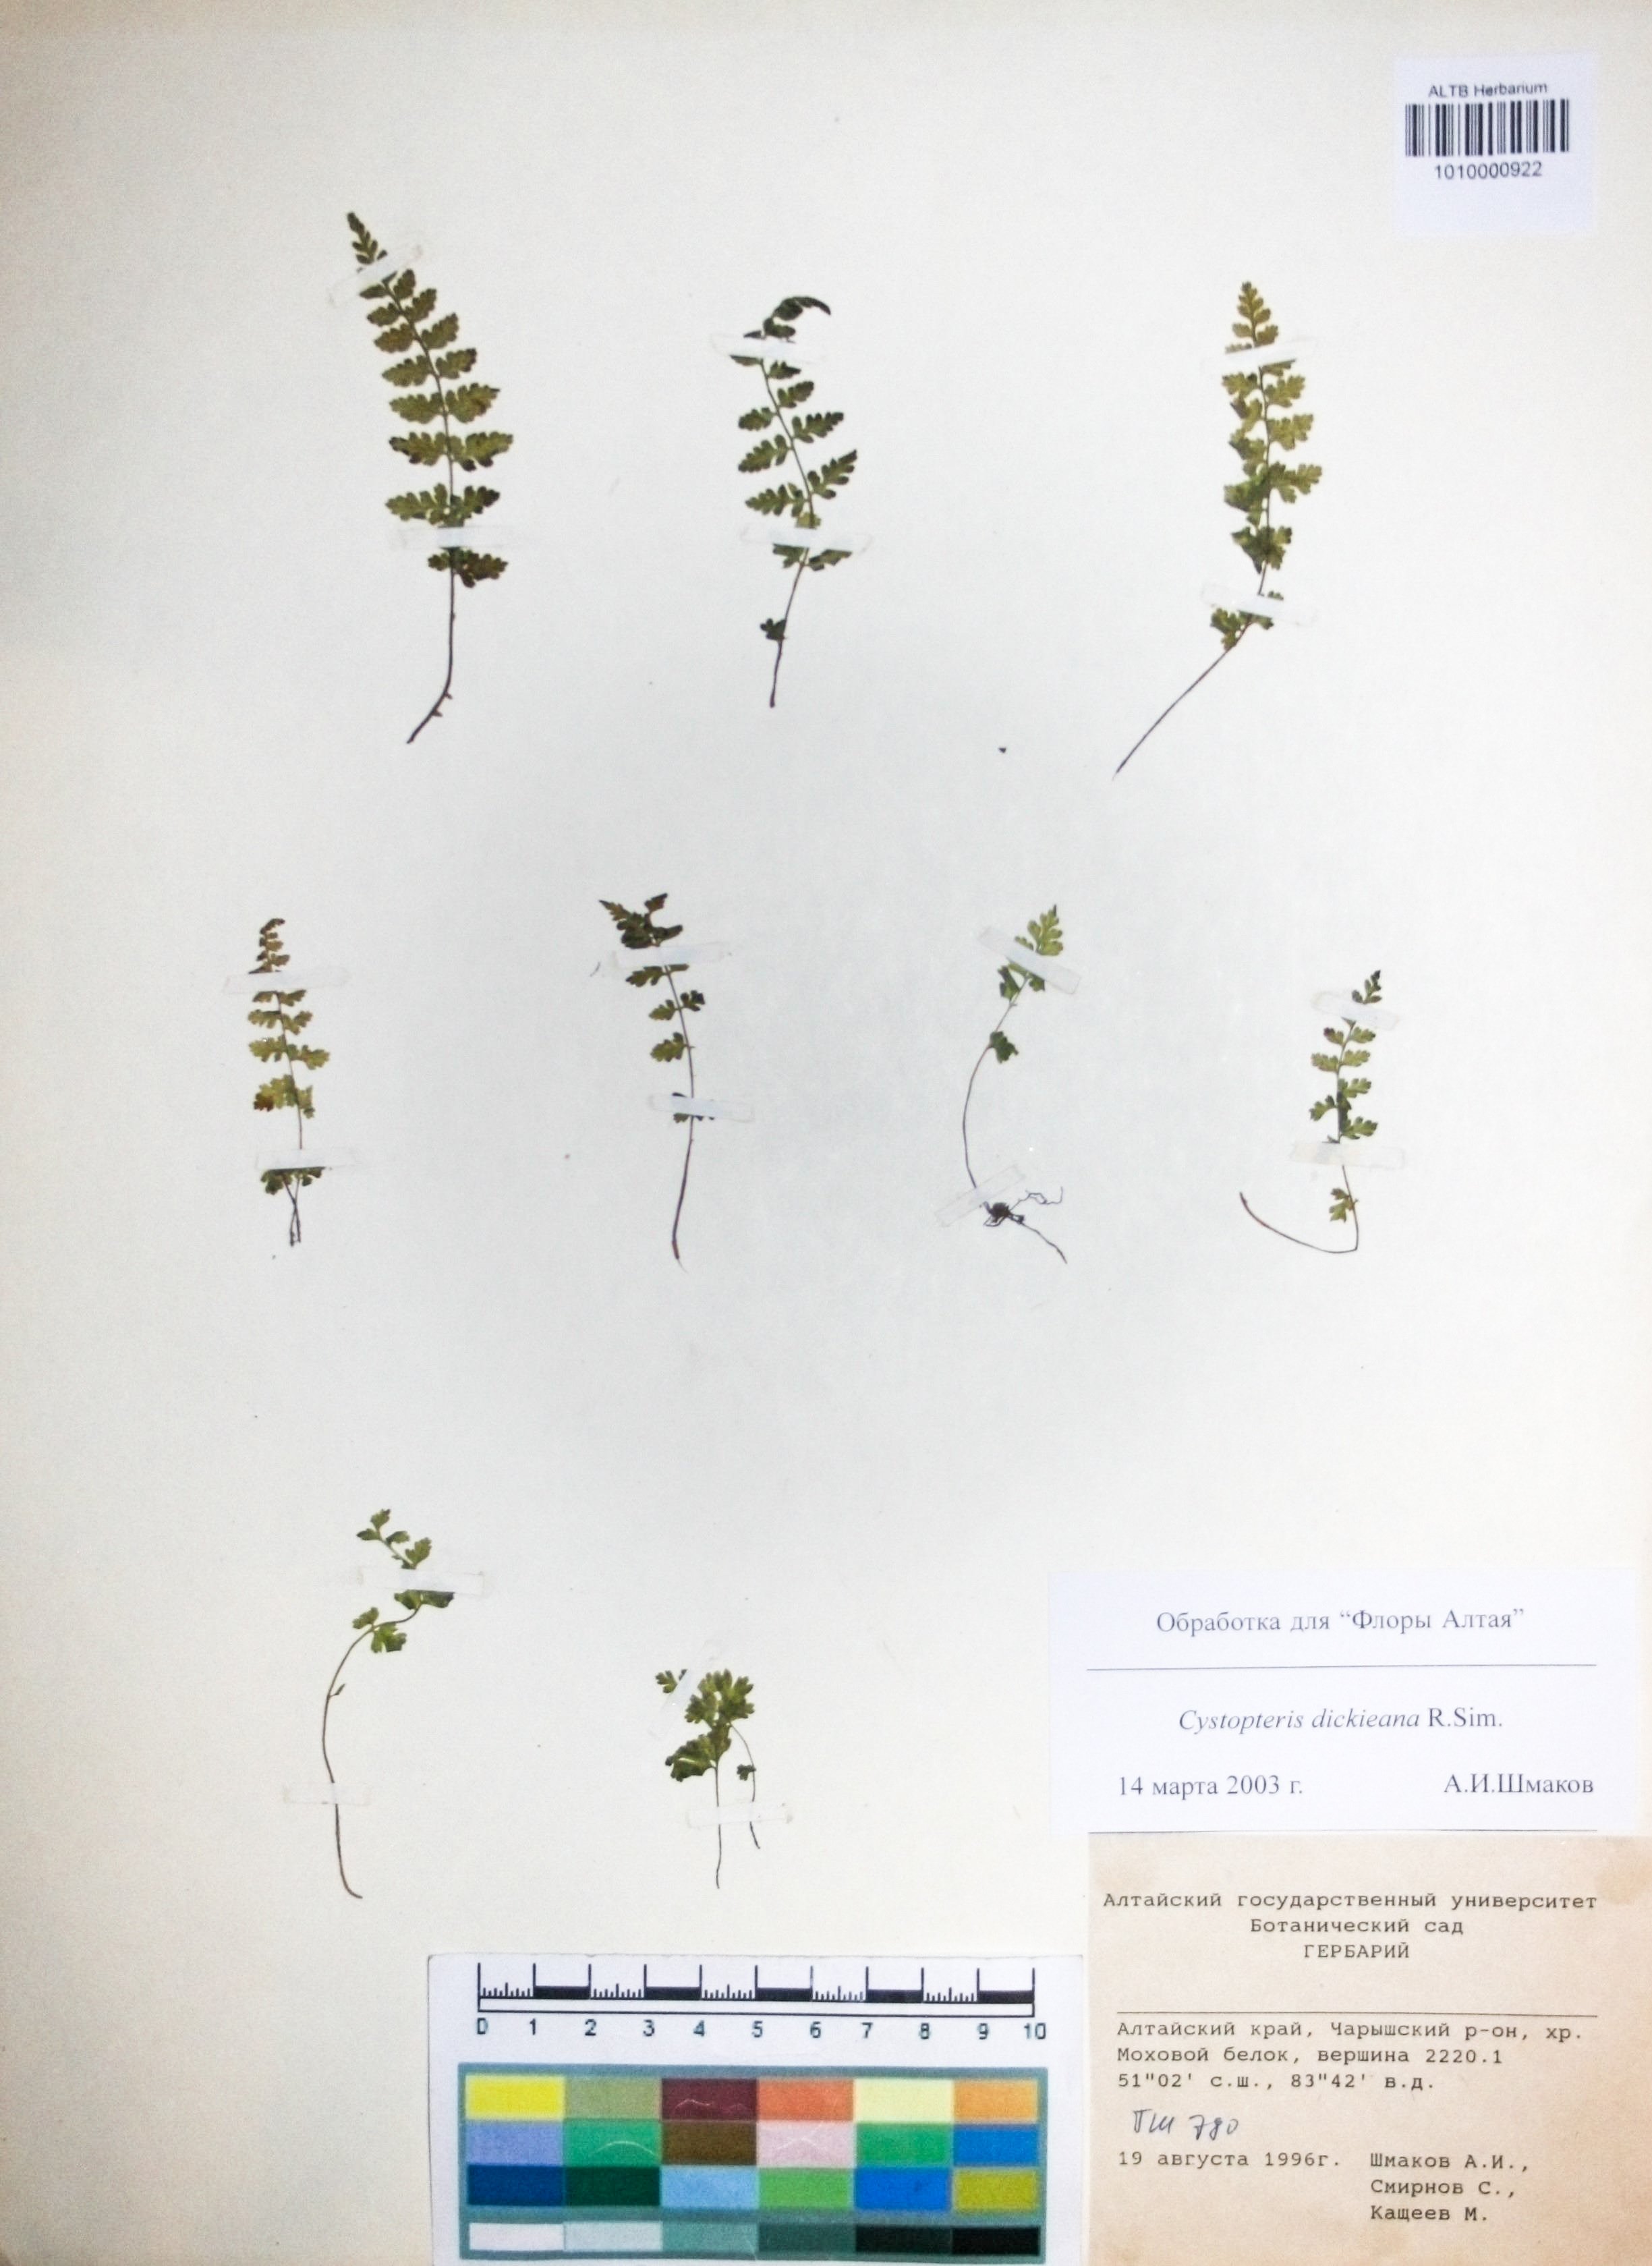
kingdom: Plantae
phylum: Tracheophyta
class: Polypodiopsida
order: Polypodiales
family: Cystopteridaceae
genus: Cystopteris
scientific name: Cystopteris dickieana
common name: Dickie's bladder-fern
